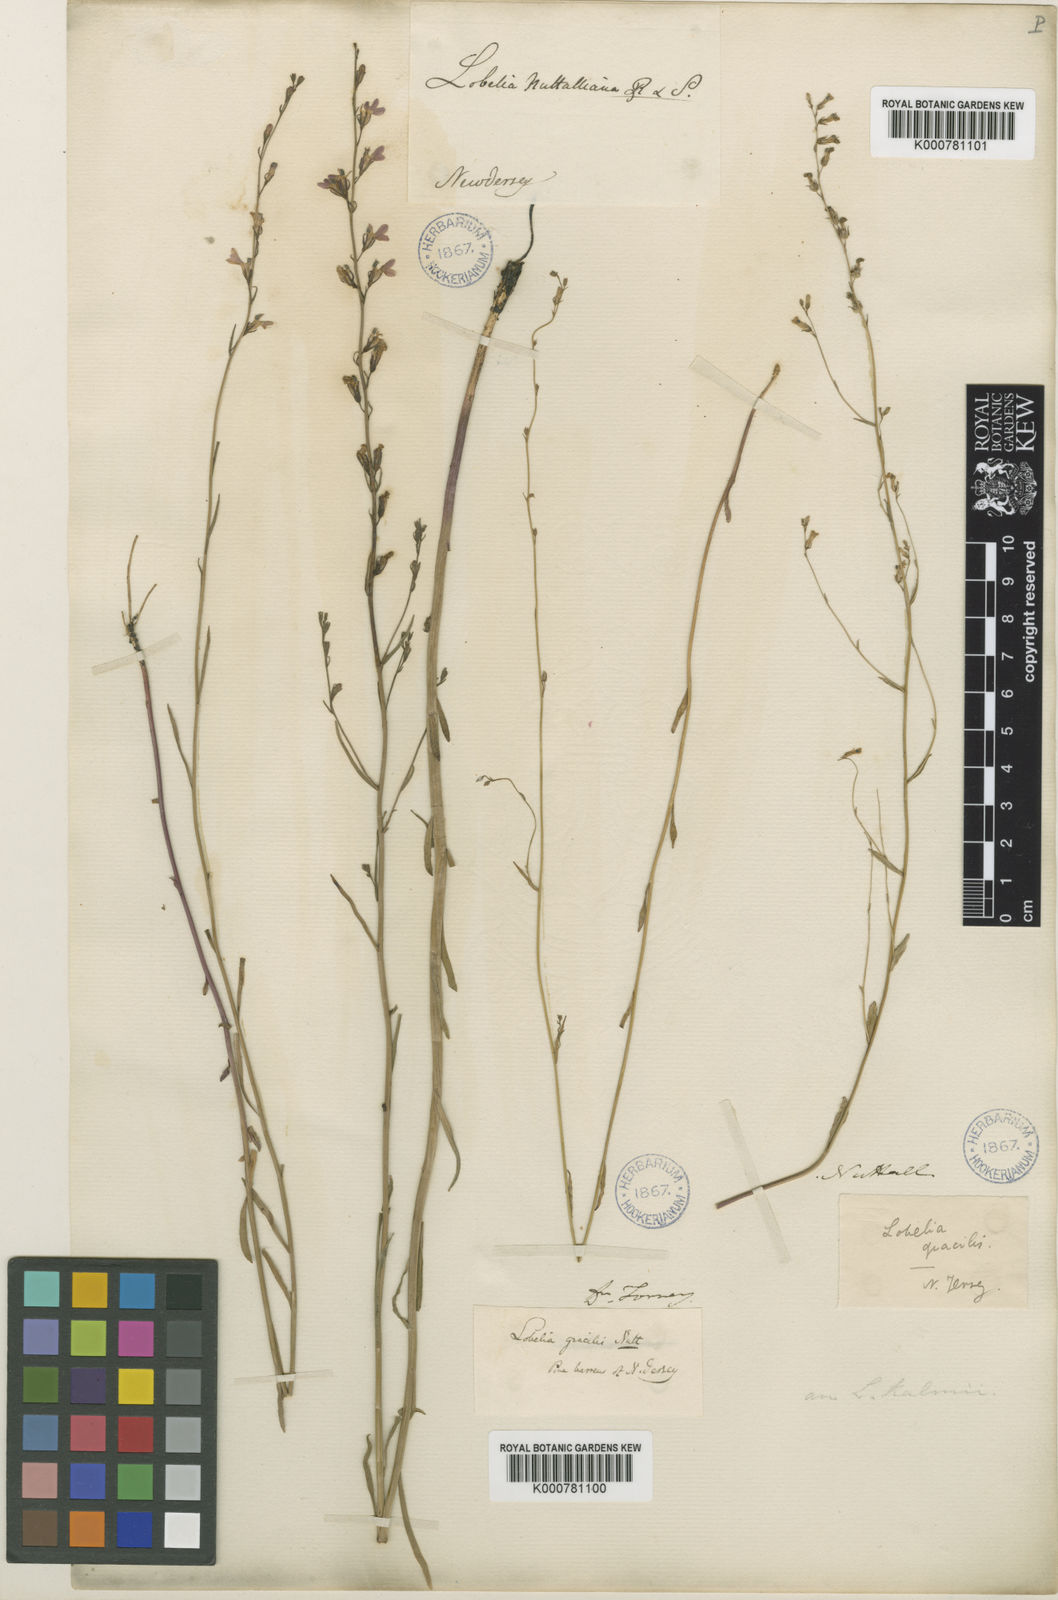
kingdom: Plantae
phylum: Tracheophyta
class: Magnoliopsida
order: Asterales
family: Campanulaceae
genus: Lobelia
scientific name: Lobelia nuttallii
